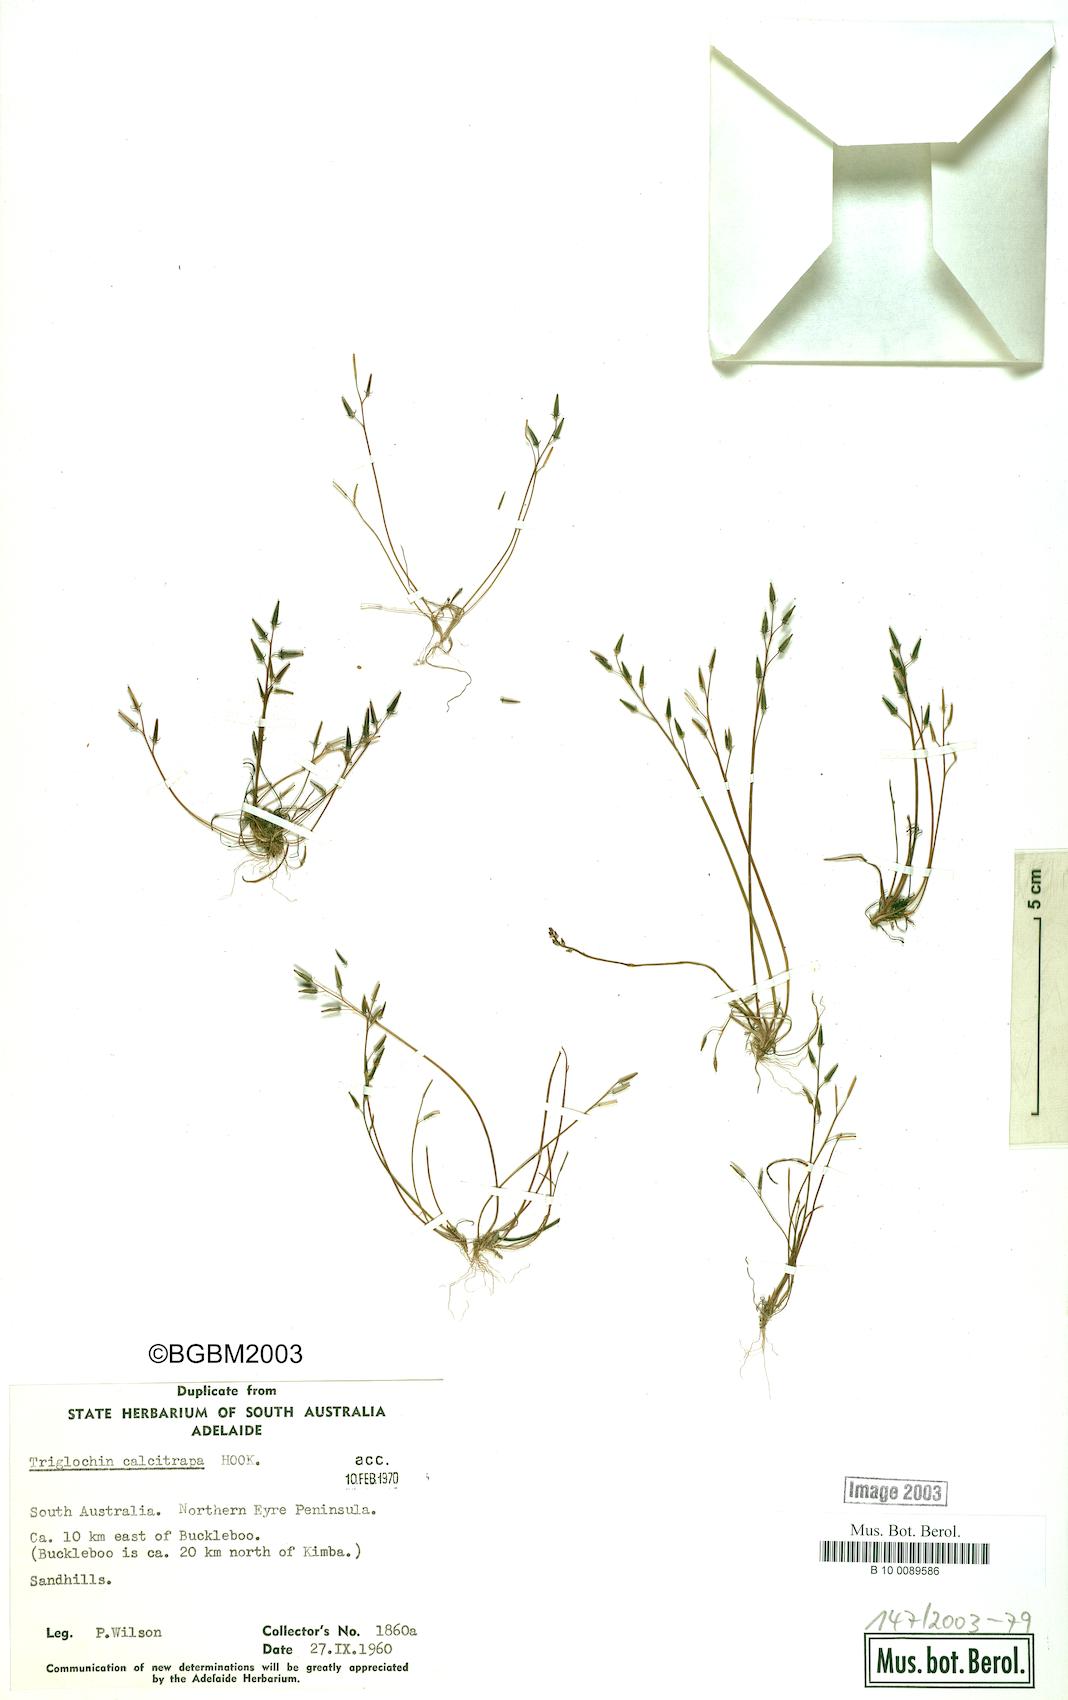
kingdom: Plantae
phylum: Tracheophyta
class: Liliopsida
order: Alismatales
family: Juncaginaceae
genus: Triglochin
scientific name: Triglochin calcitrapa
